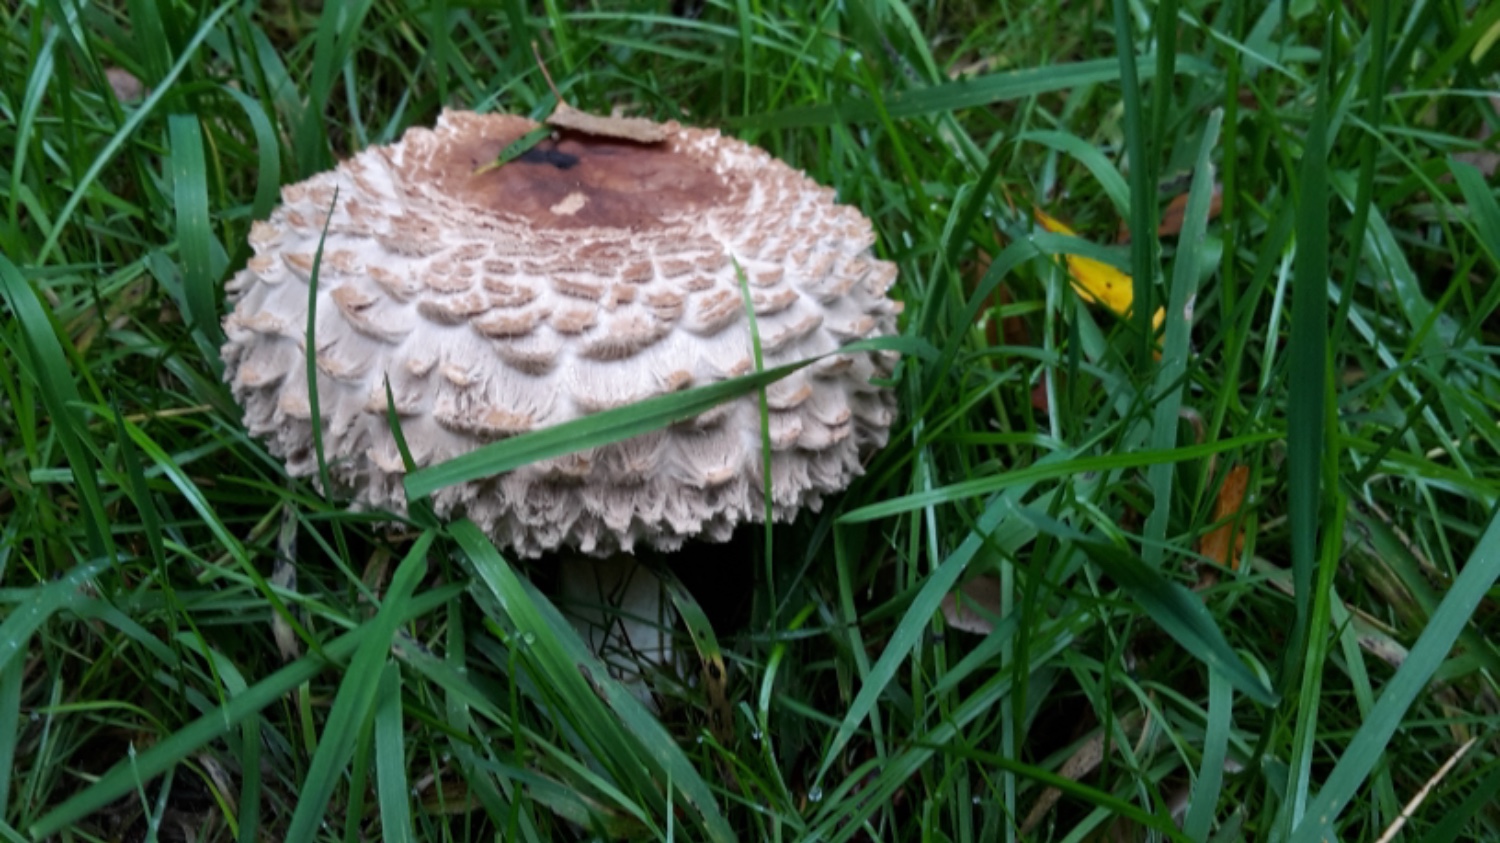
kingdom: Fungi
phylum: Basidiomycota
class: Agaricomycetes
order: Agaricales
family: Agaricaceae
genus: Chlorophyllum
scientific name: Chlorophyllum rhacodes
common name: ægte rabarberhat
